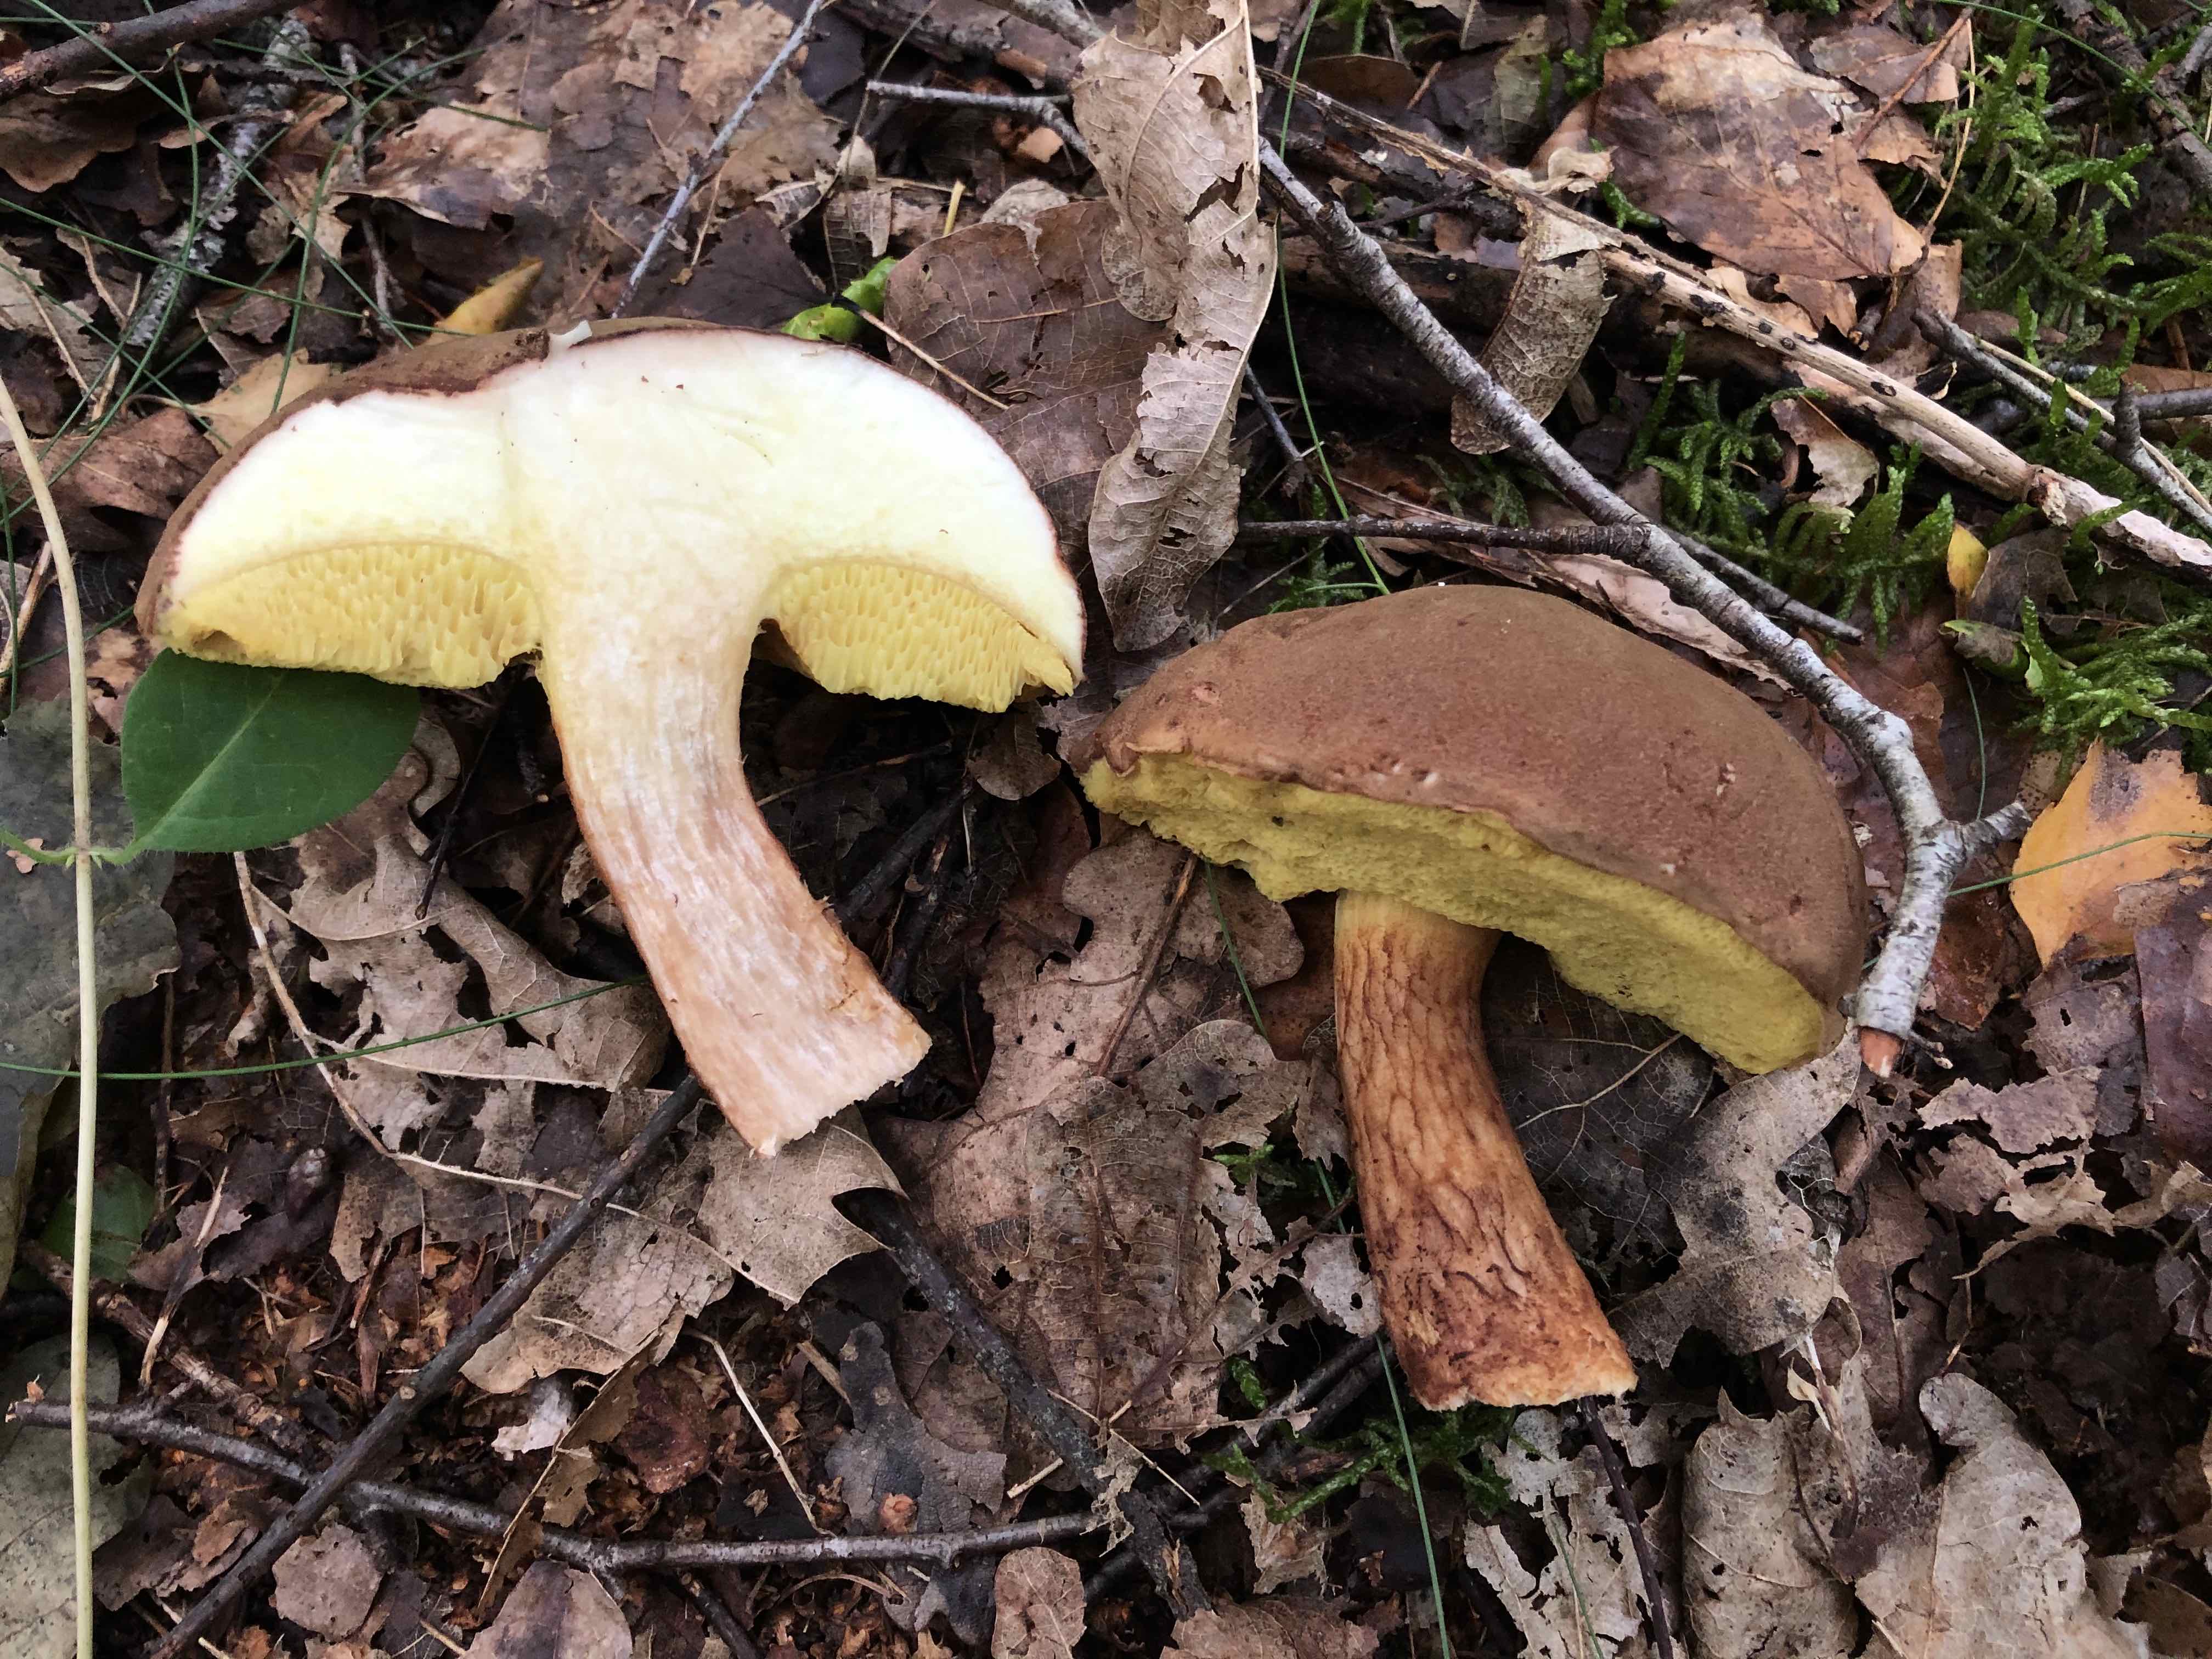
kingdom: Fungi
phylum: Basidiomycota
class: Agaricomycetes
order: Boletales
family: Boletaceae
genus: Xerocomus
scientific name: Xerocomus ferrugineus
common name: vaskeskinds-rørhat
